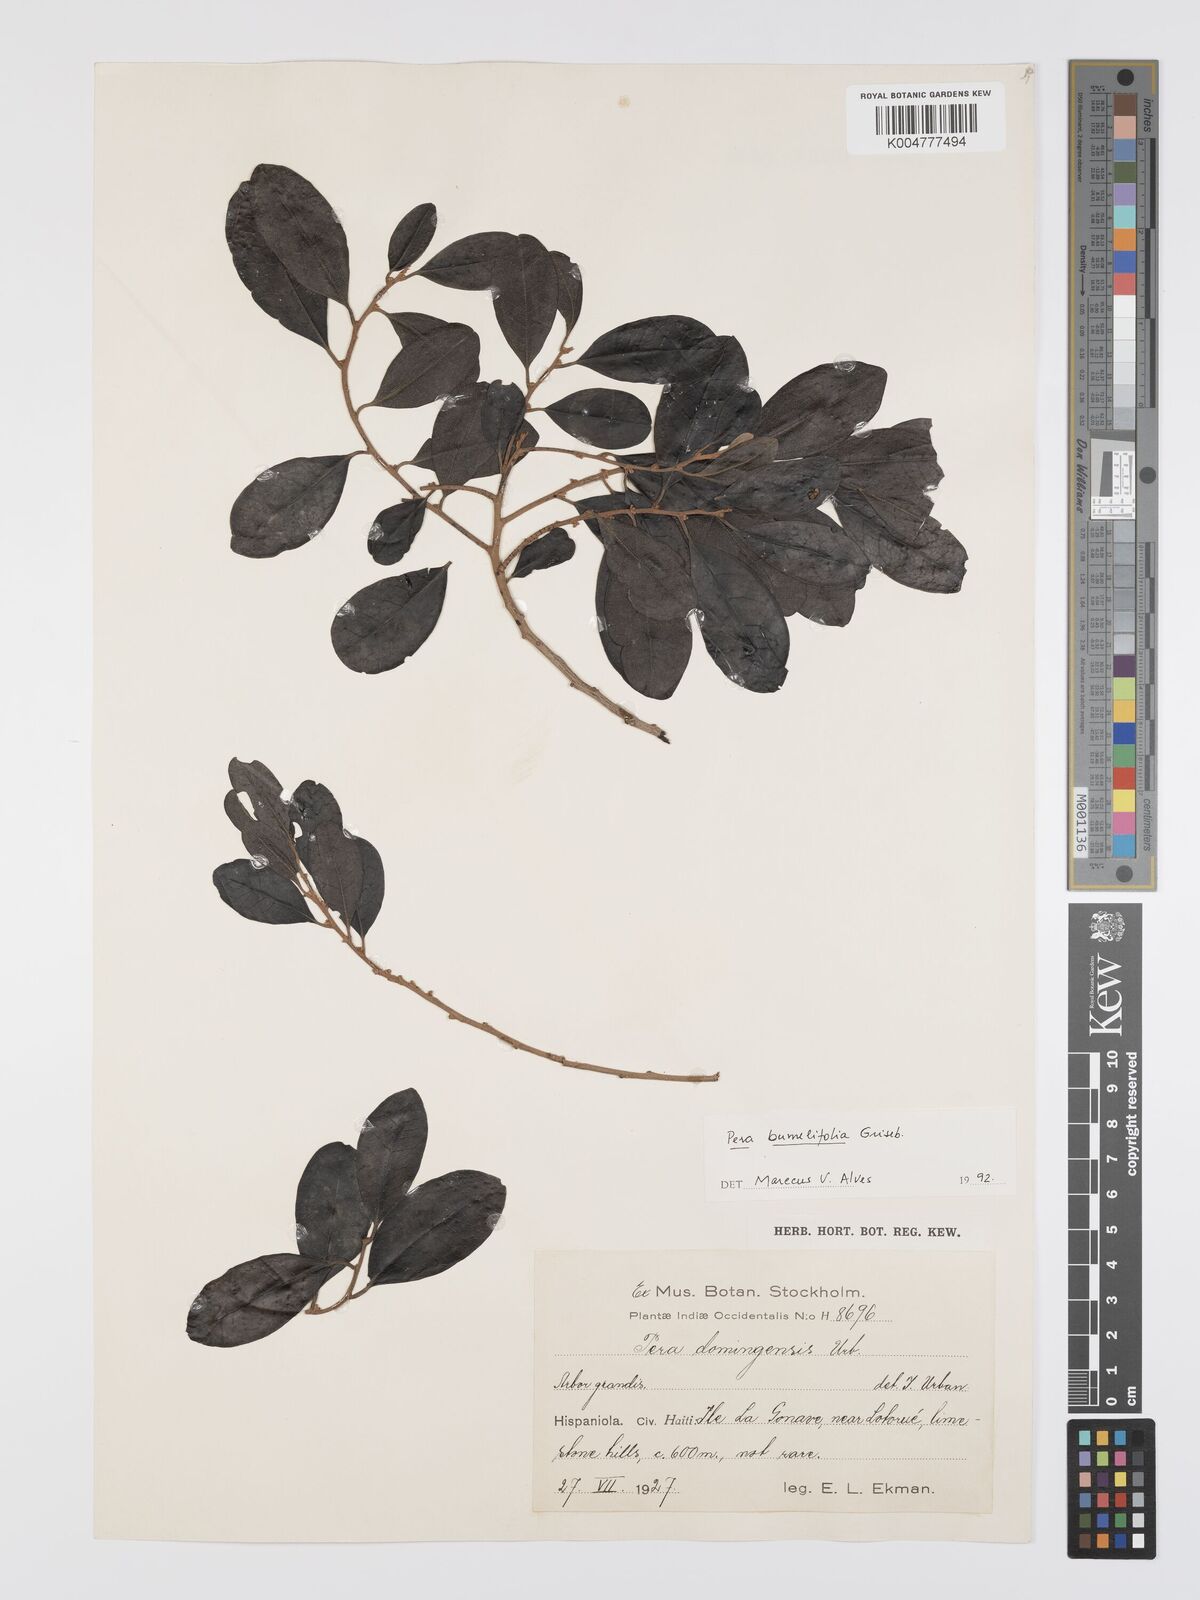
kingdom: Plantae
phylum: Tracheophyta
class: Magnoliopsida
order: Malpighiales
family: Peraceae
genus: Pera
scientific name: Pera
